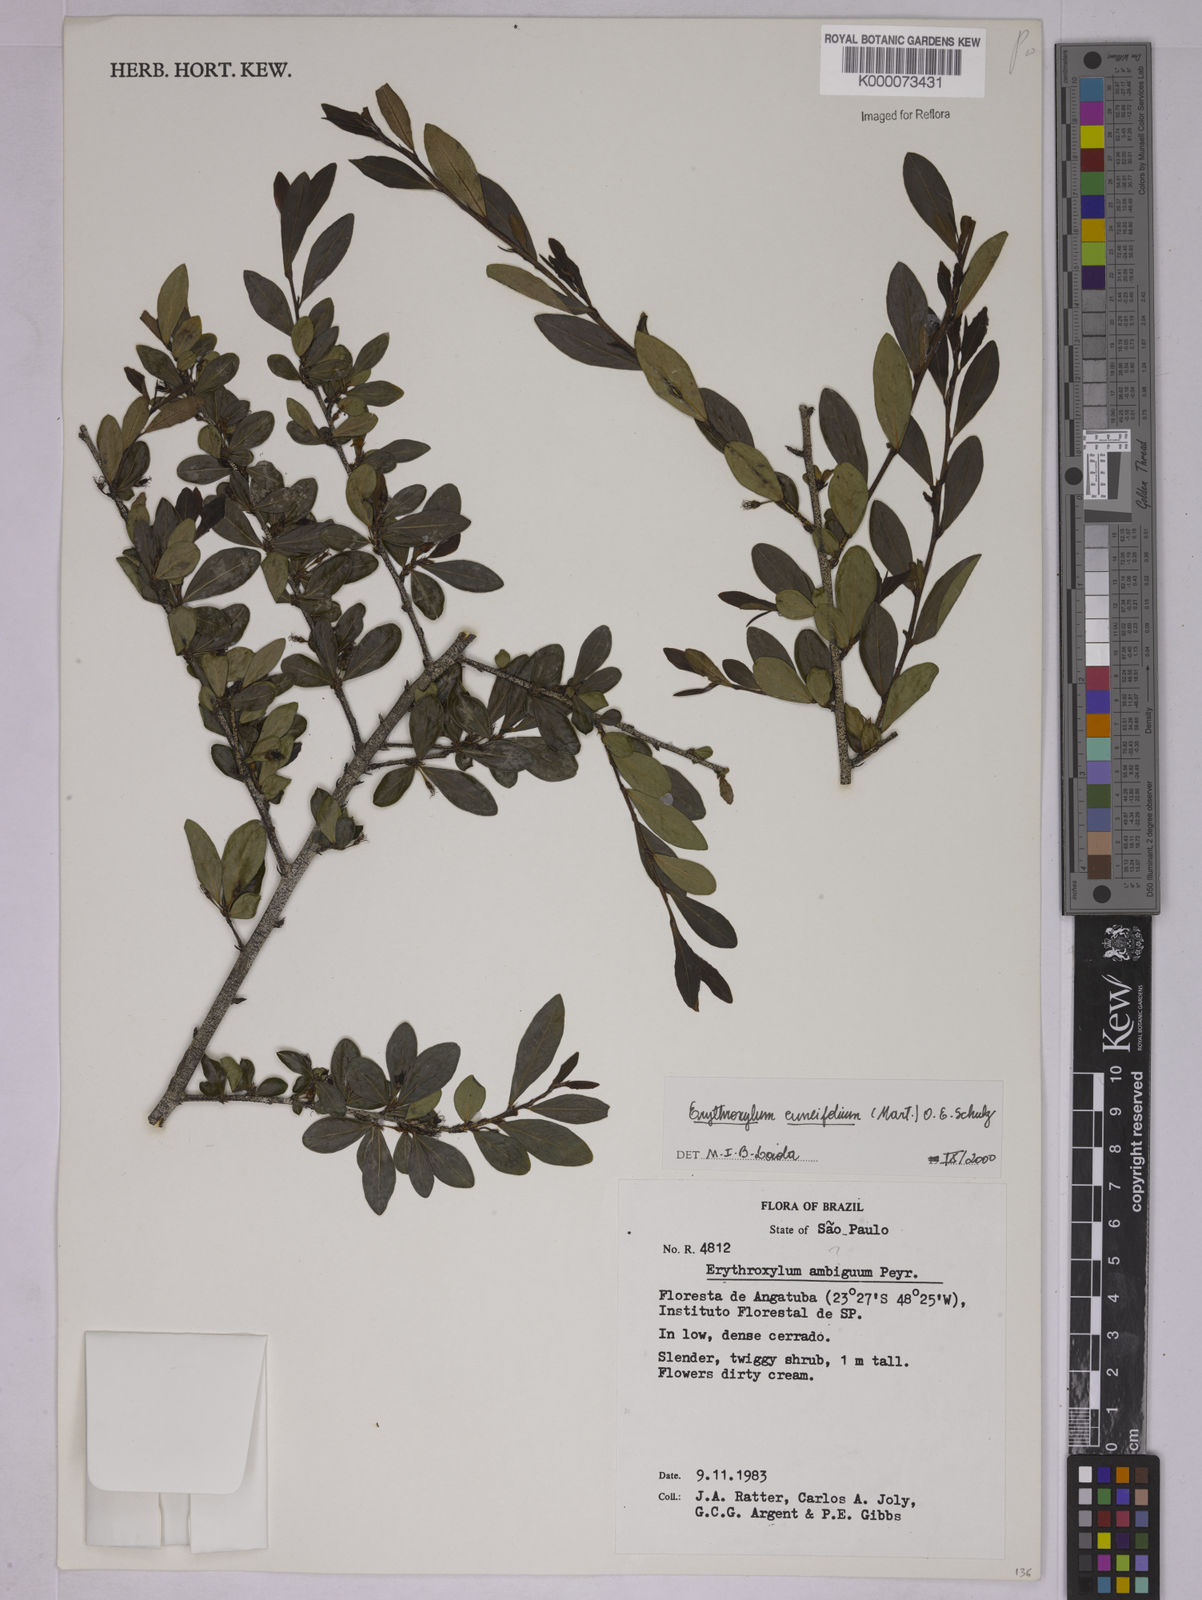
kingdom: Plantae
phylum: Tracheophyta
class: Magnoliopsida
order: Malpighiales
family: Erythroxylaceae
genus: Erythroxylum
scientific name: Erythroxylum cuneifolium
